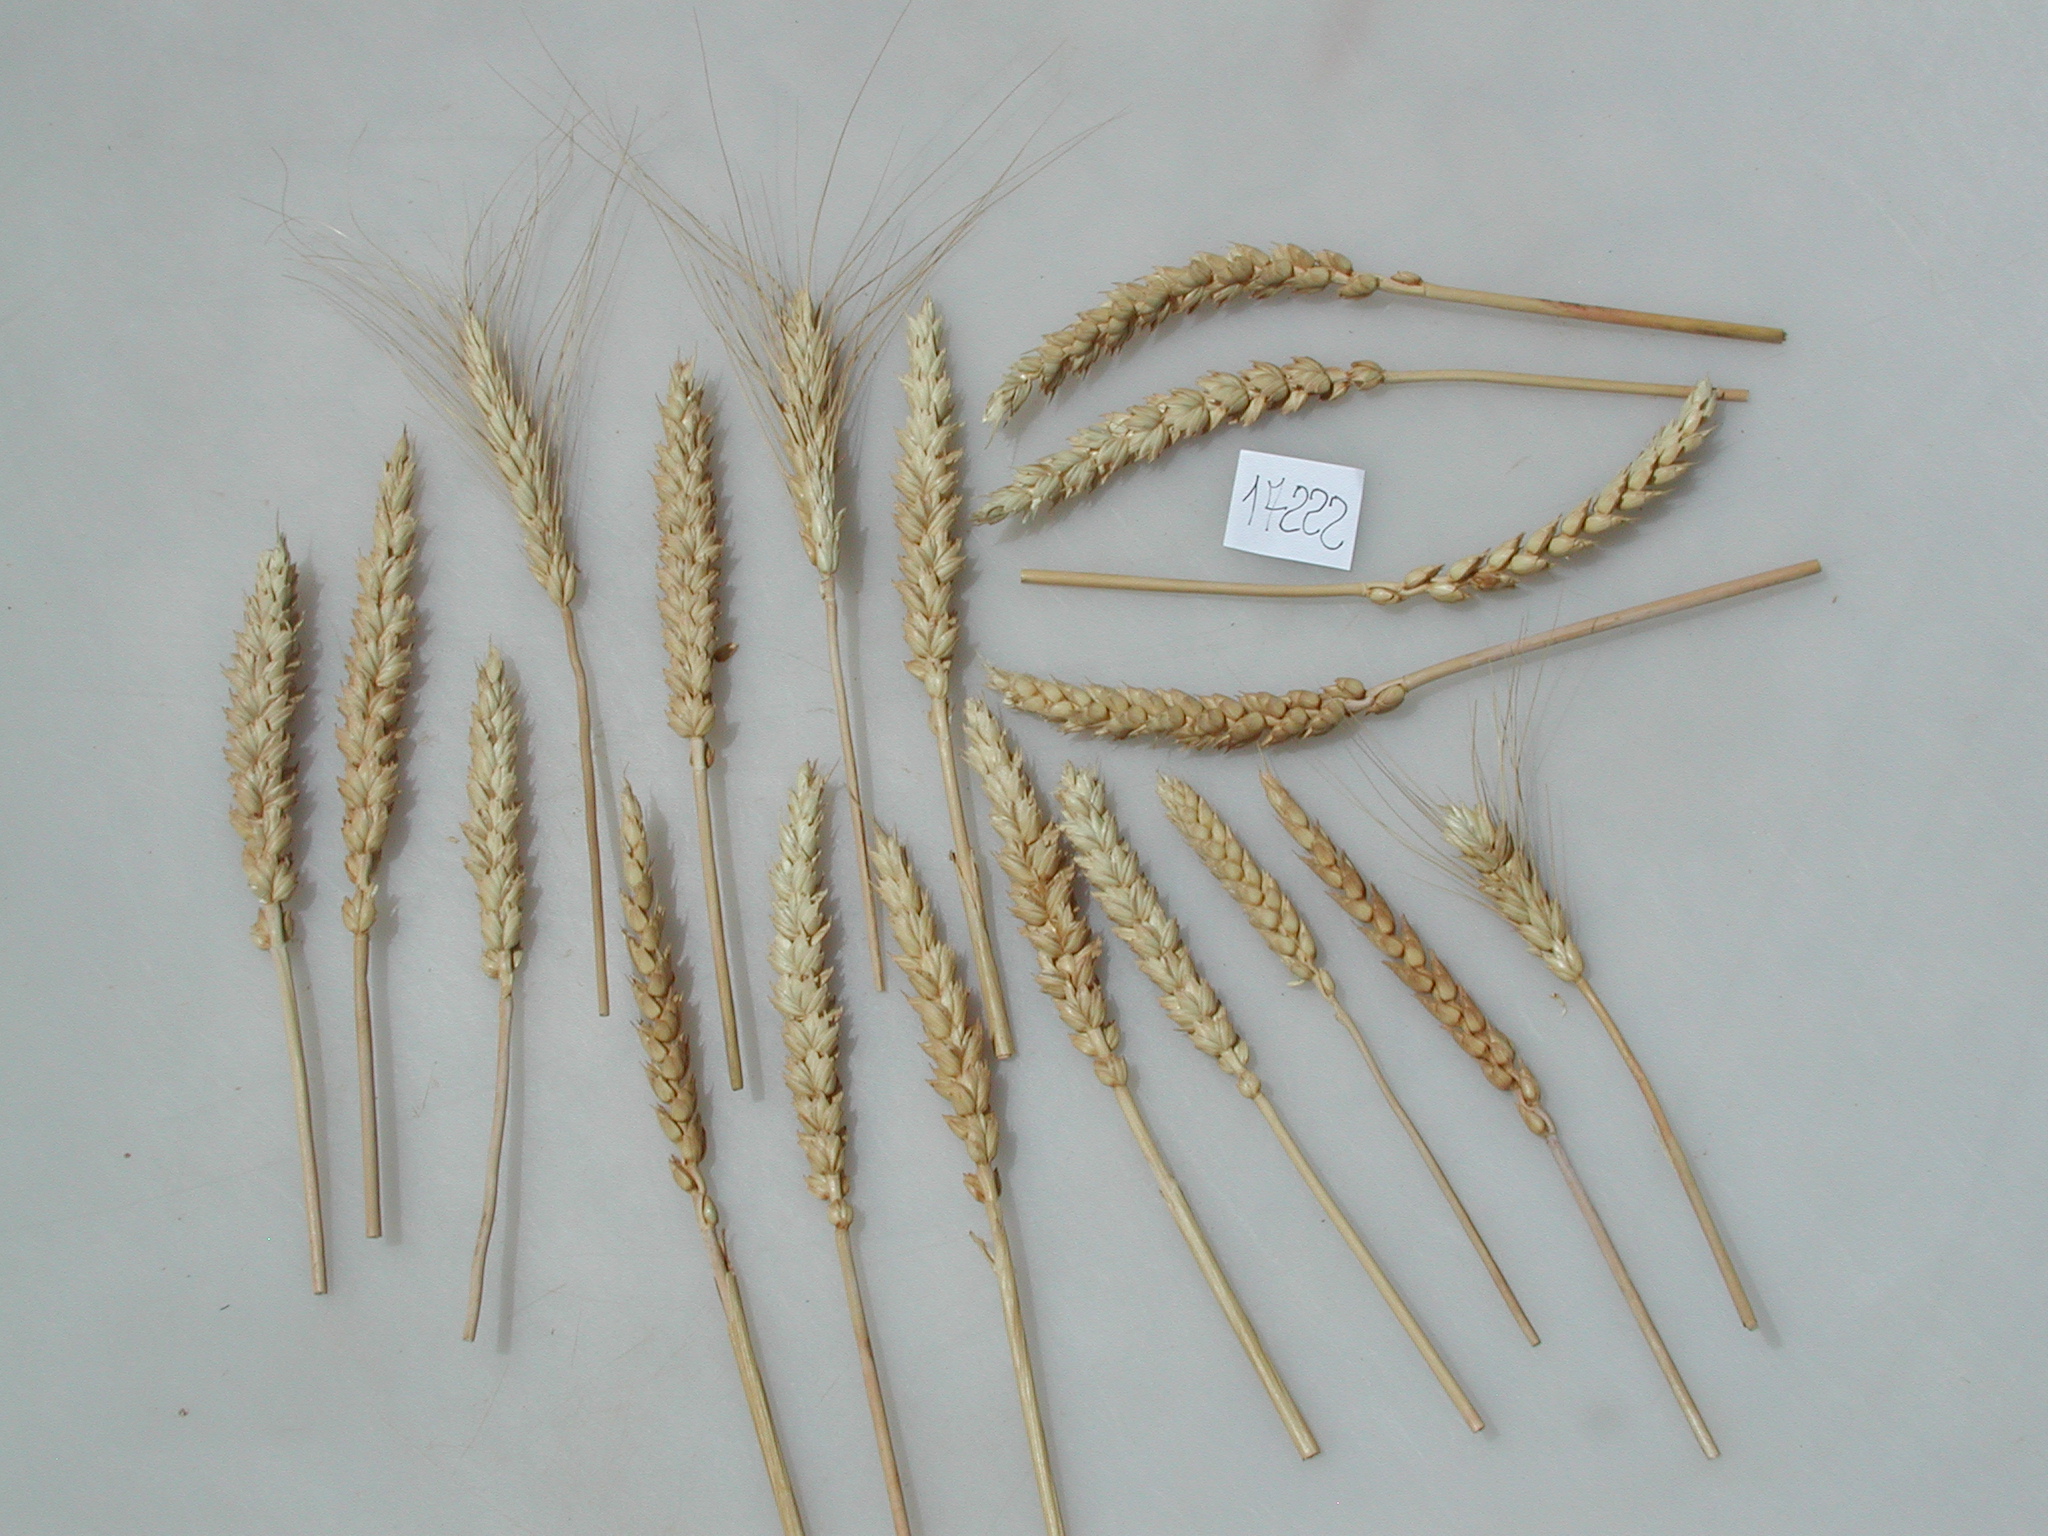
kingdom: Plantae
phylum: Tracheophyta
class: Liliopsida
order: Poales
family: Poaceae
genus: Triticum
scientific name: Triticum
